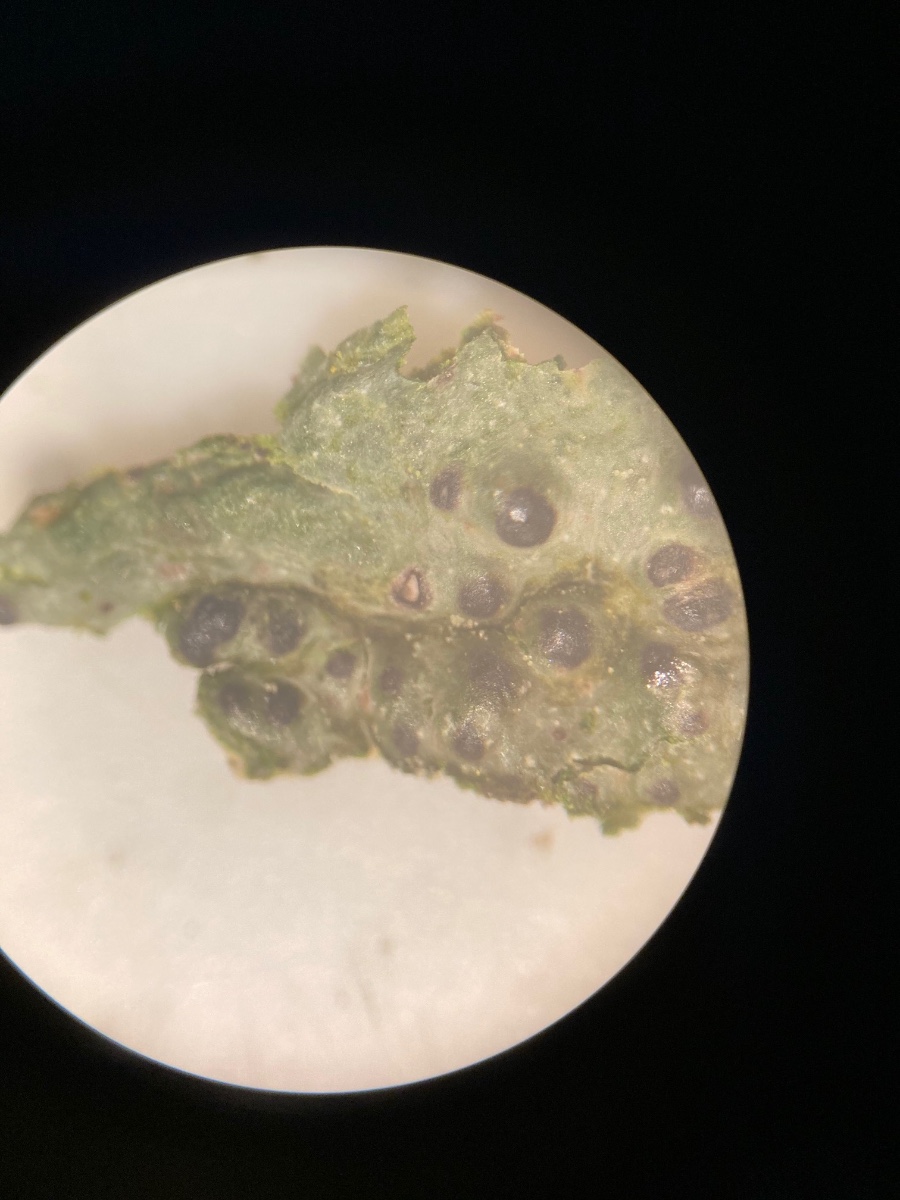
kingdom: Fungi
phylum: Ascomycota
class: Eurotiomycetes
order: Pyrenulales
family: Pyrenulaceae
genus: Pyrenula
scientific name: Pyrenula nitida
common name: glinsende kernelav
